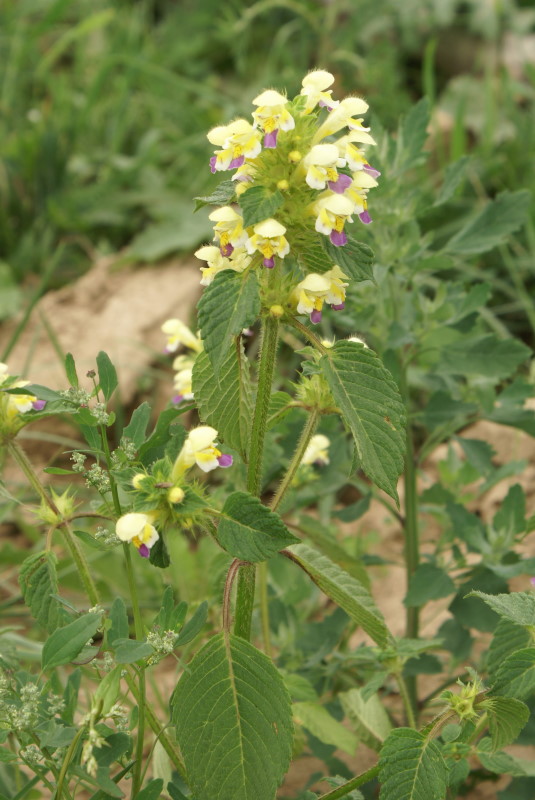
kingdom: Plantae
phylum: Tracheophyta
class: Magnoliopsida
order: Lamiales
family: Lamiaceae
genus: Galeopsis
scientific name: Galeopsis speciosa
